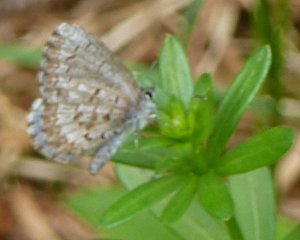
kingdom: Animalia
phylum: Arthropoda
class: Insecta
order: Lepidoptera
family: Lycaenidae
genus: Celastrina
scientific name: Celastrina lucia
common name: Northern Spring Azure
